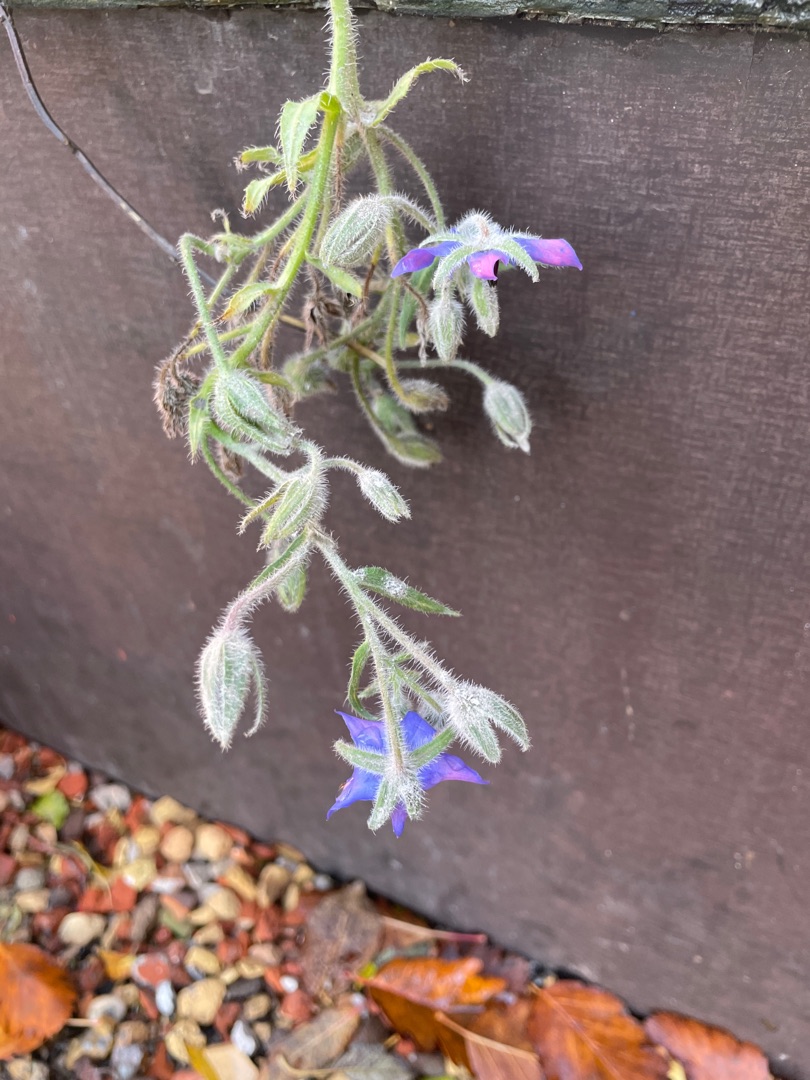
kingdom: Plantae
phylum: Tracheophyta
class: Magnoliopsida
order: Boraginales
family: Boraginaceae
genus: Borago
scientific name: Borago officinalis
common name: Hjulkrone
